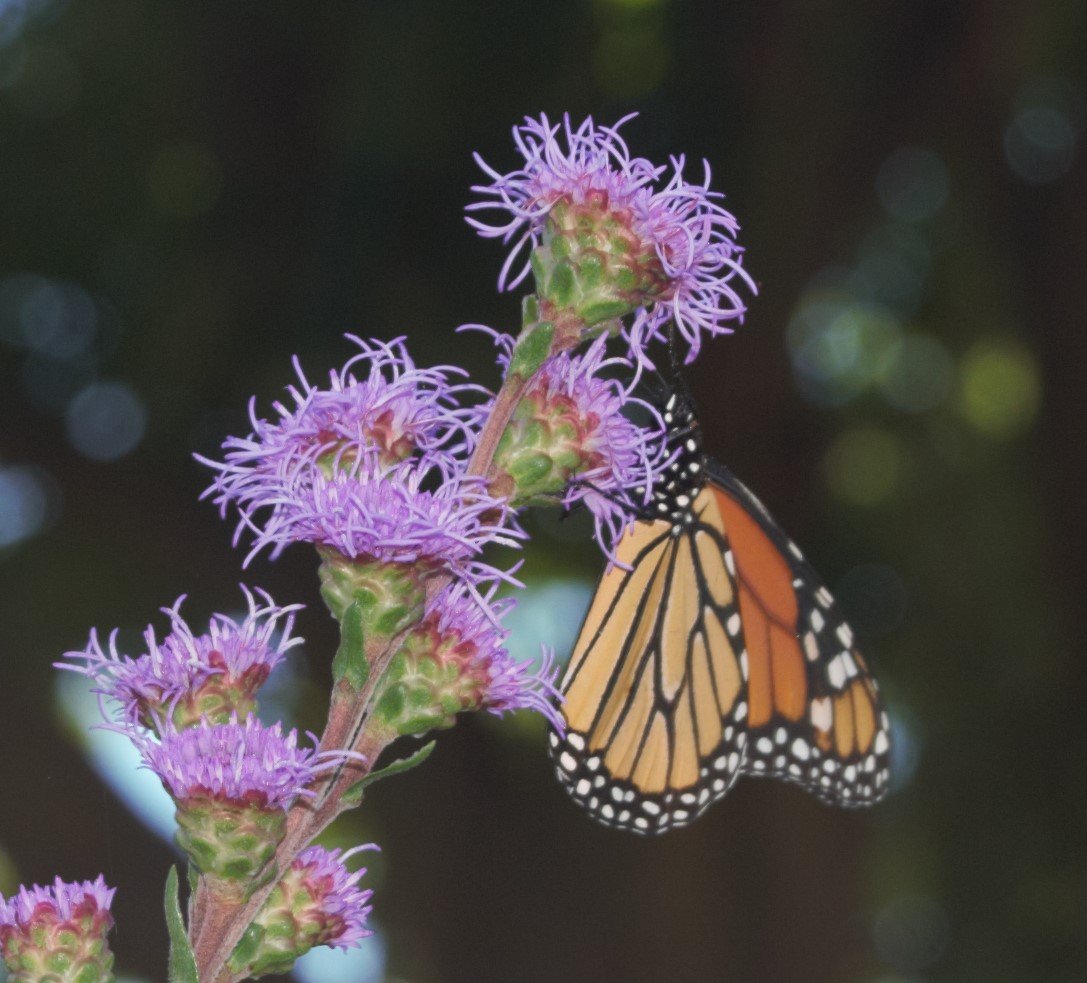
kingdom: Animalia
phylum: Arthropoda
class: Insecta
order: Lepidoptera
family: Nymphalidae
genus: Danaus
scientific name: Danaus plexippus
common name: Monarch
